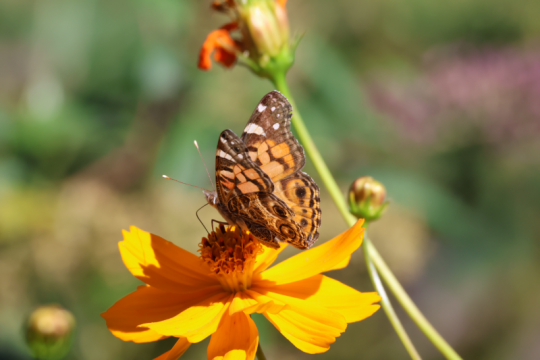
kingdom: Animalia
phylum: Arthropoda
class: Insecta
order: Lepidoptera
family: Nymphalidae
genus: Vanessa
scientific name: Vanessa virginiensis
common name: American Lady
